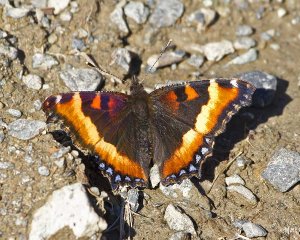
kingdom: Animalia
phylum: Arthropoda
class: Insecta
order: Lepidoptera
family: Nymphalidae
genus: Aglais
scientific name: Aglais milberti
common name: Milbert's Tortoiseshell
